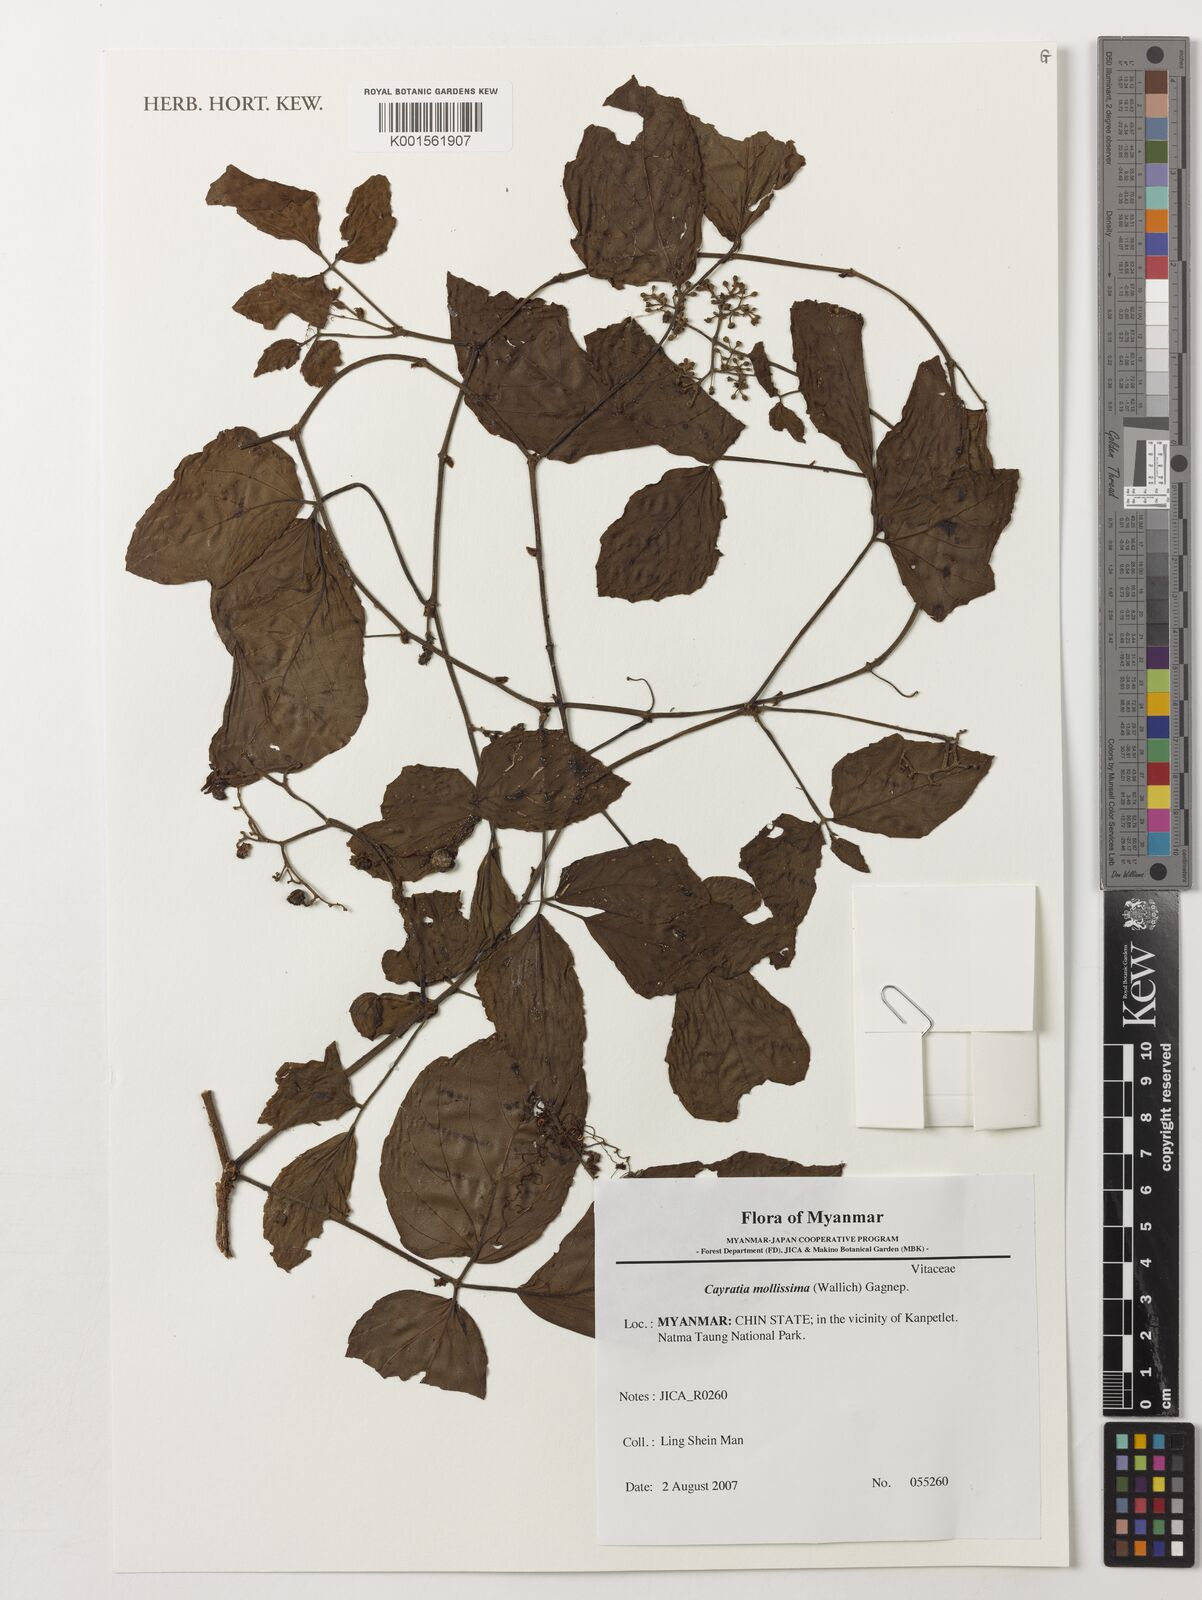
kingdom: Plantae
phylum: Tracheophyta
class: Magnoliopsida
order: Vitales
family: Vitaceae
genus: Cayratia
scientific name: Cayratia mollissima
